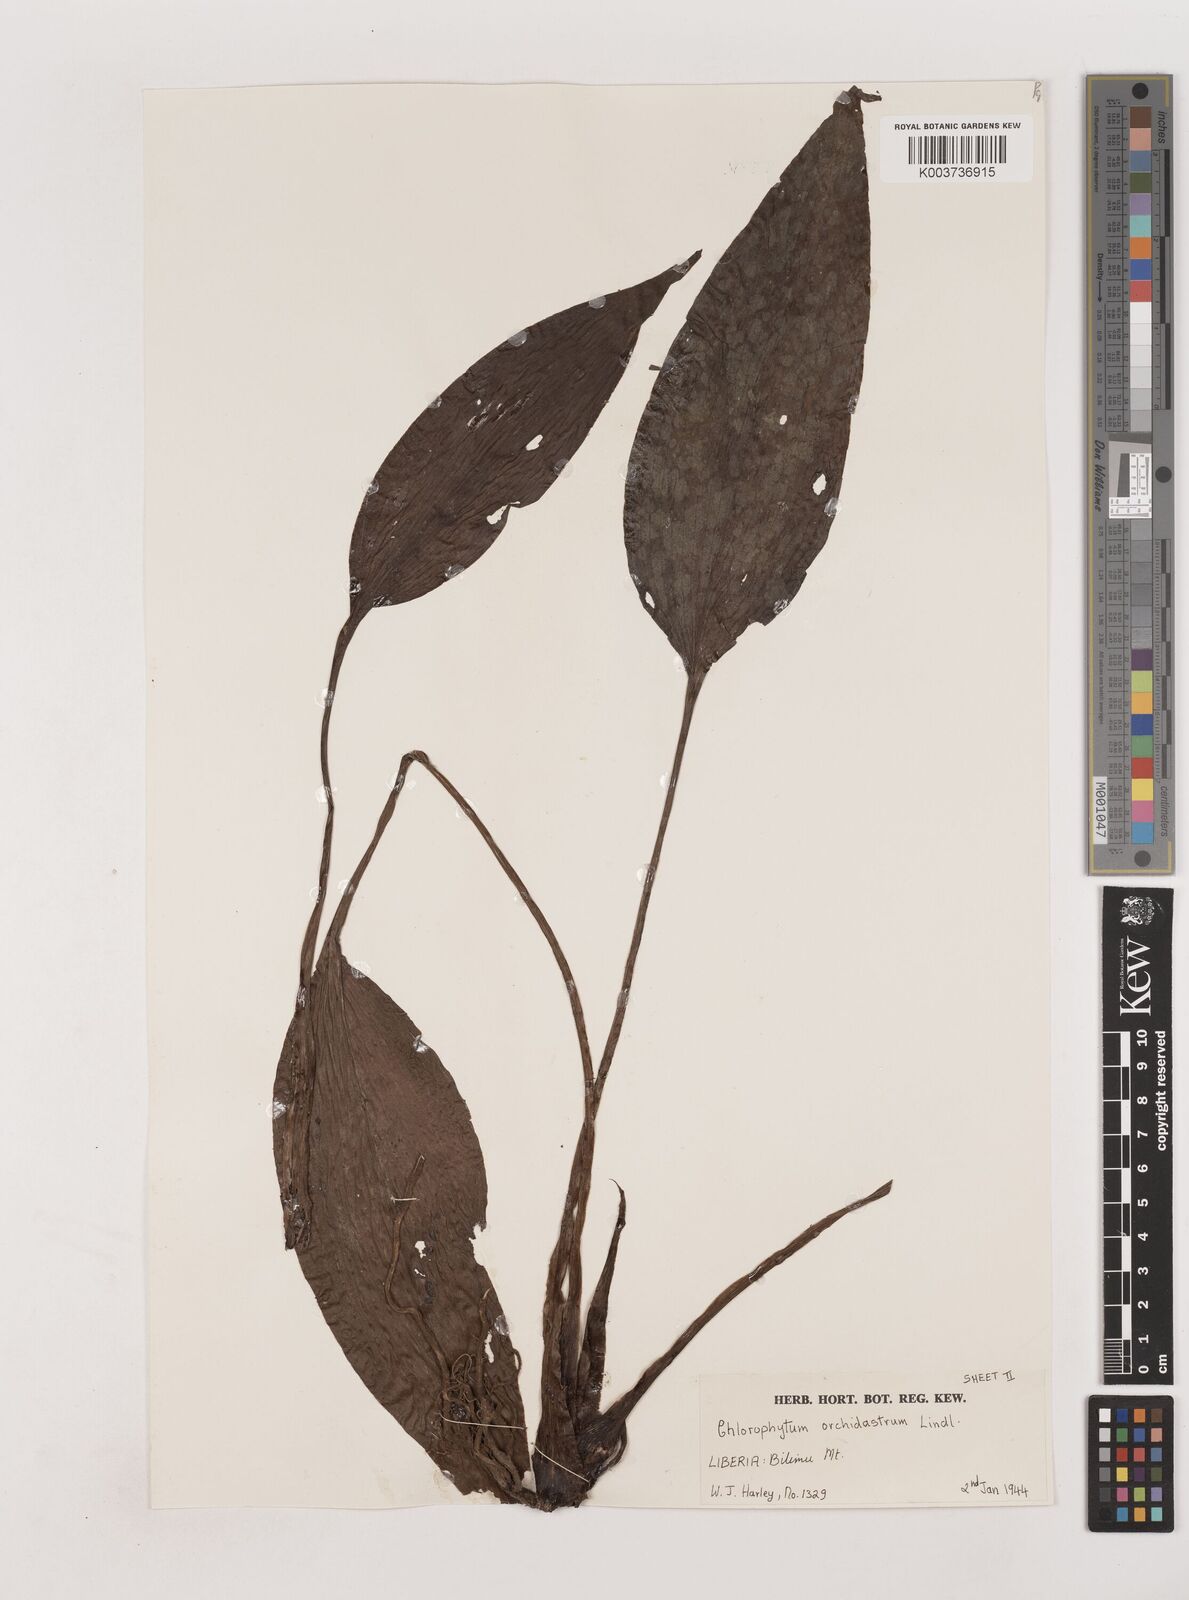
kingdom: Plantae
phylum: Tracheophyta
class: Liliopsida
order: Asparagales
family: Asparagaceae
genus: Chlorophytum
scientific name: Chlorophytum orchidastrum
